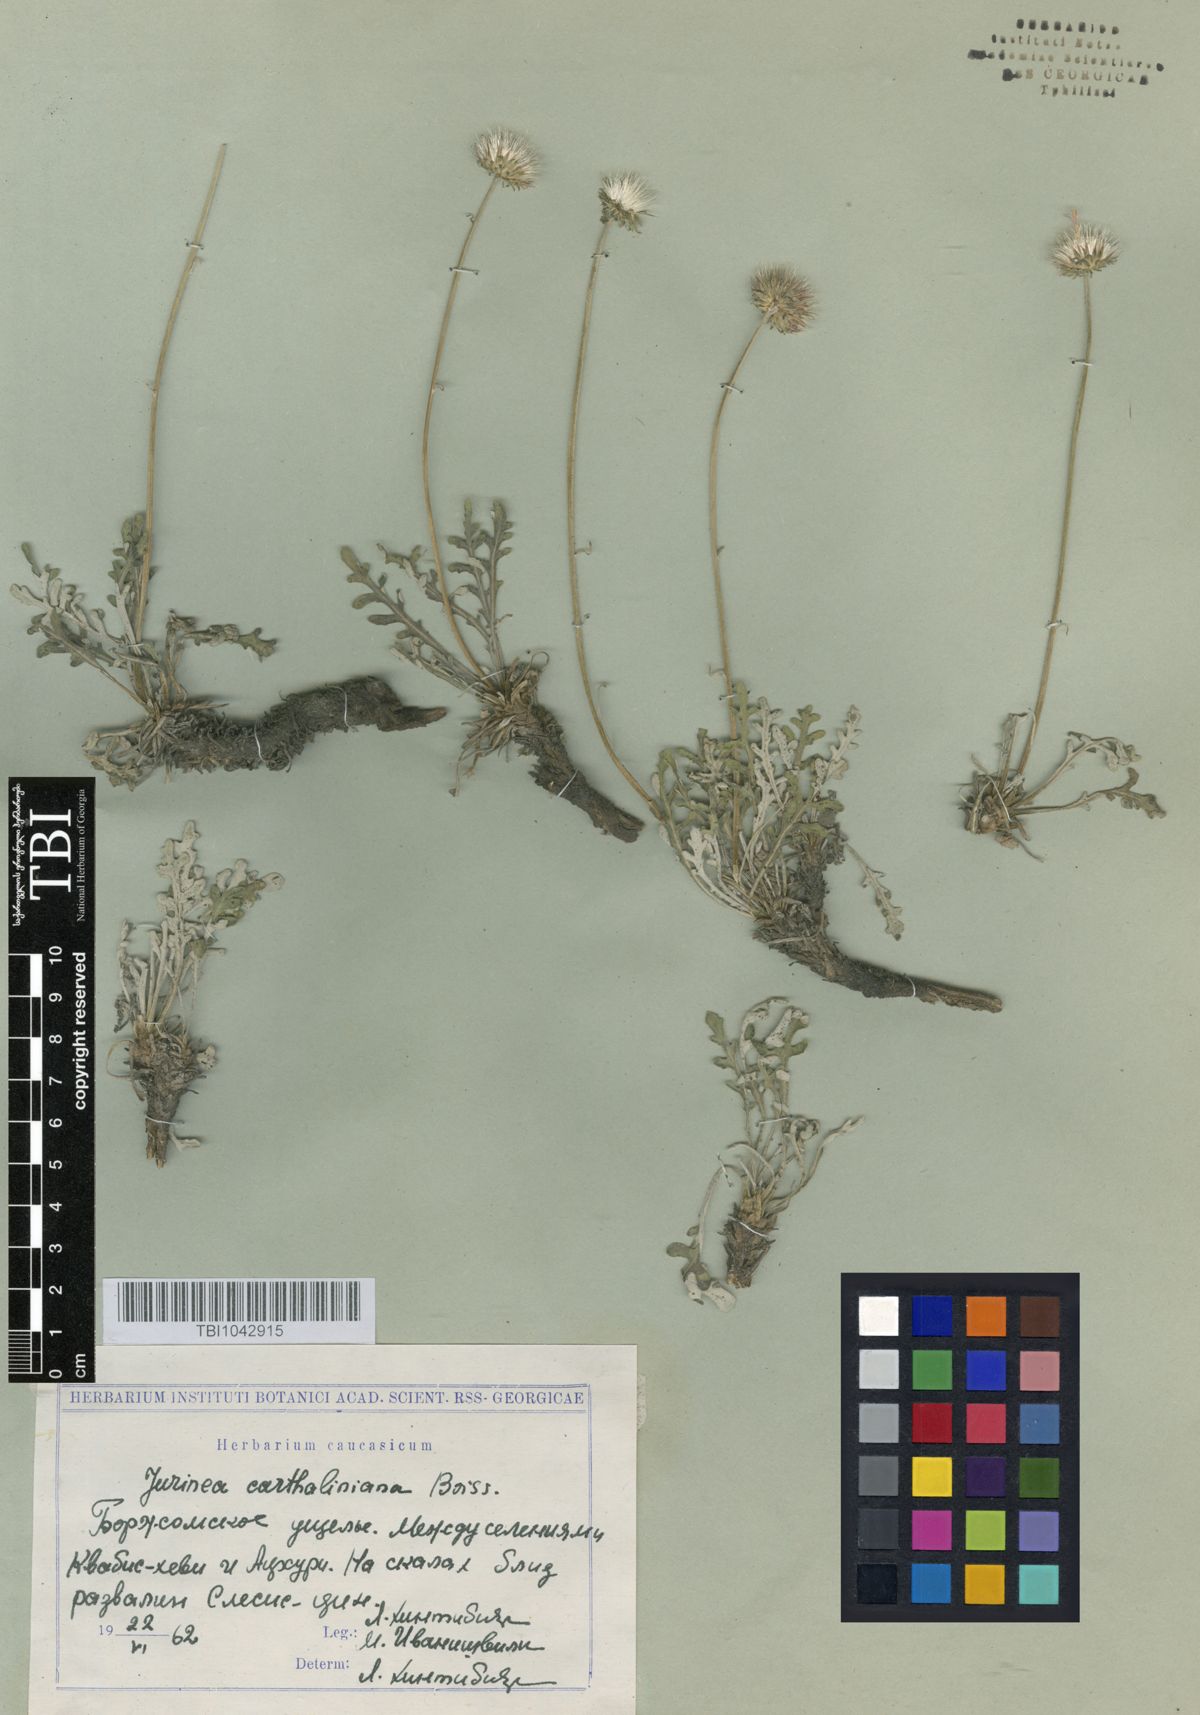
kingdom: Plantae
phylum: Tracheophyta
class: Magnoliopsida
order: Asterales
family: Asteraceae
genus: Jurinea
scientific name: Jurinea cartaliniana
